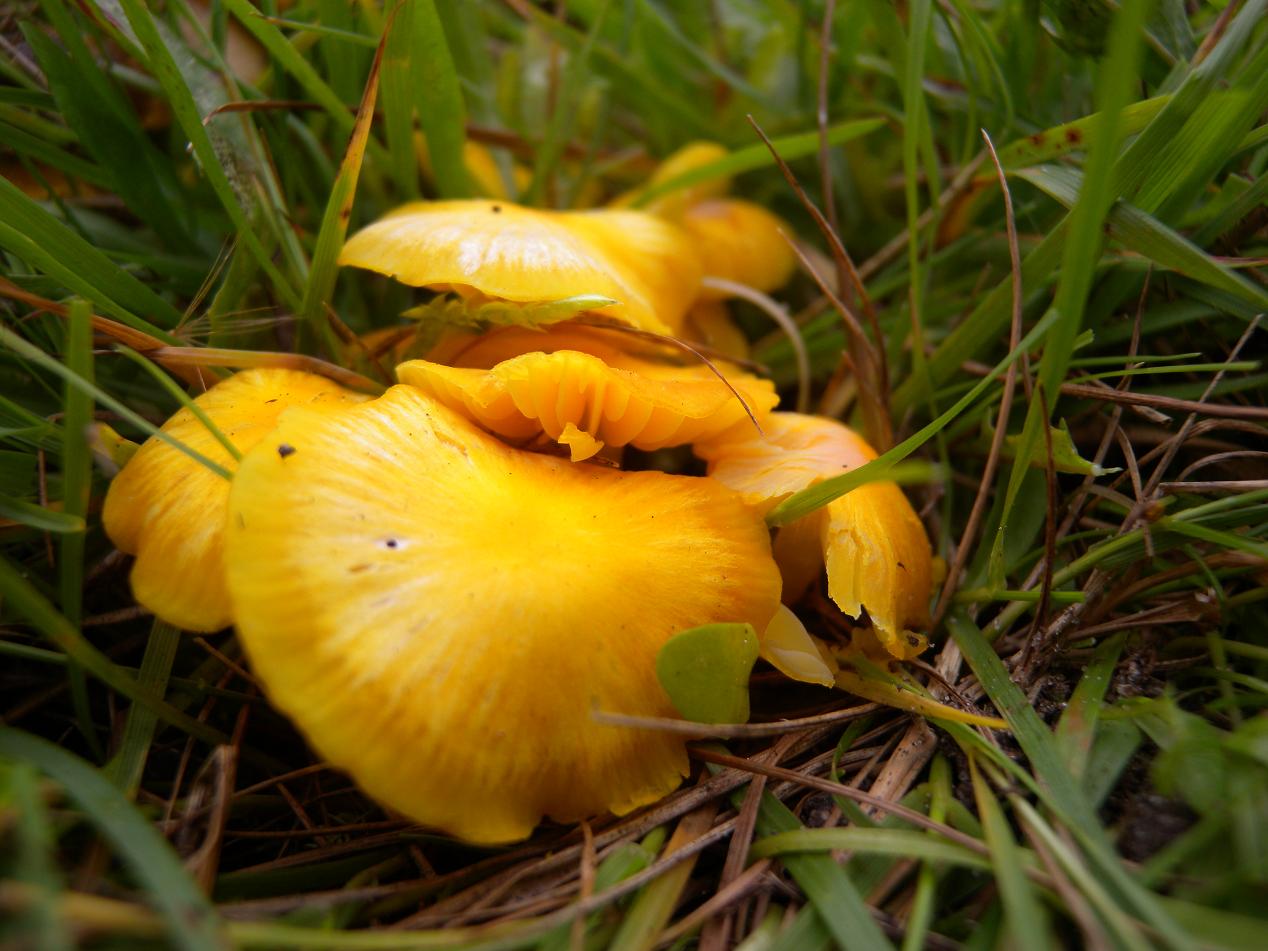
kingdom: Fungi
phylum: Basidiomycota
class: Agaricomycetes
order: Agaricales
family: Hygrophoraceae
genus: Hygrocybe
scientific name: Hygrocybe ceracea
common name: voksgul vokshat
